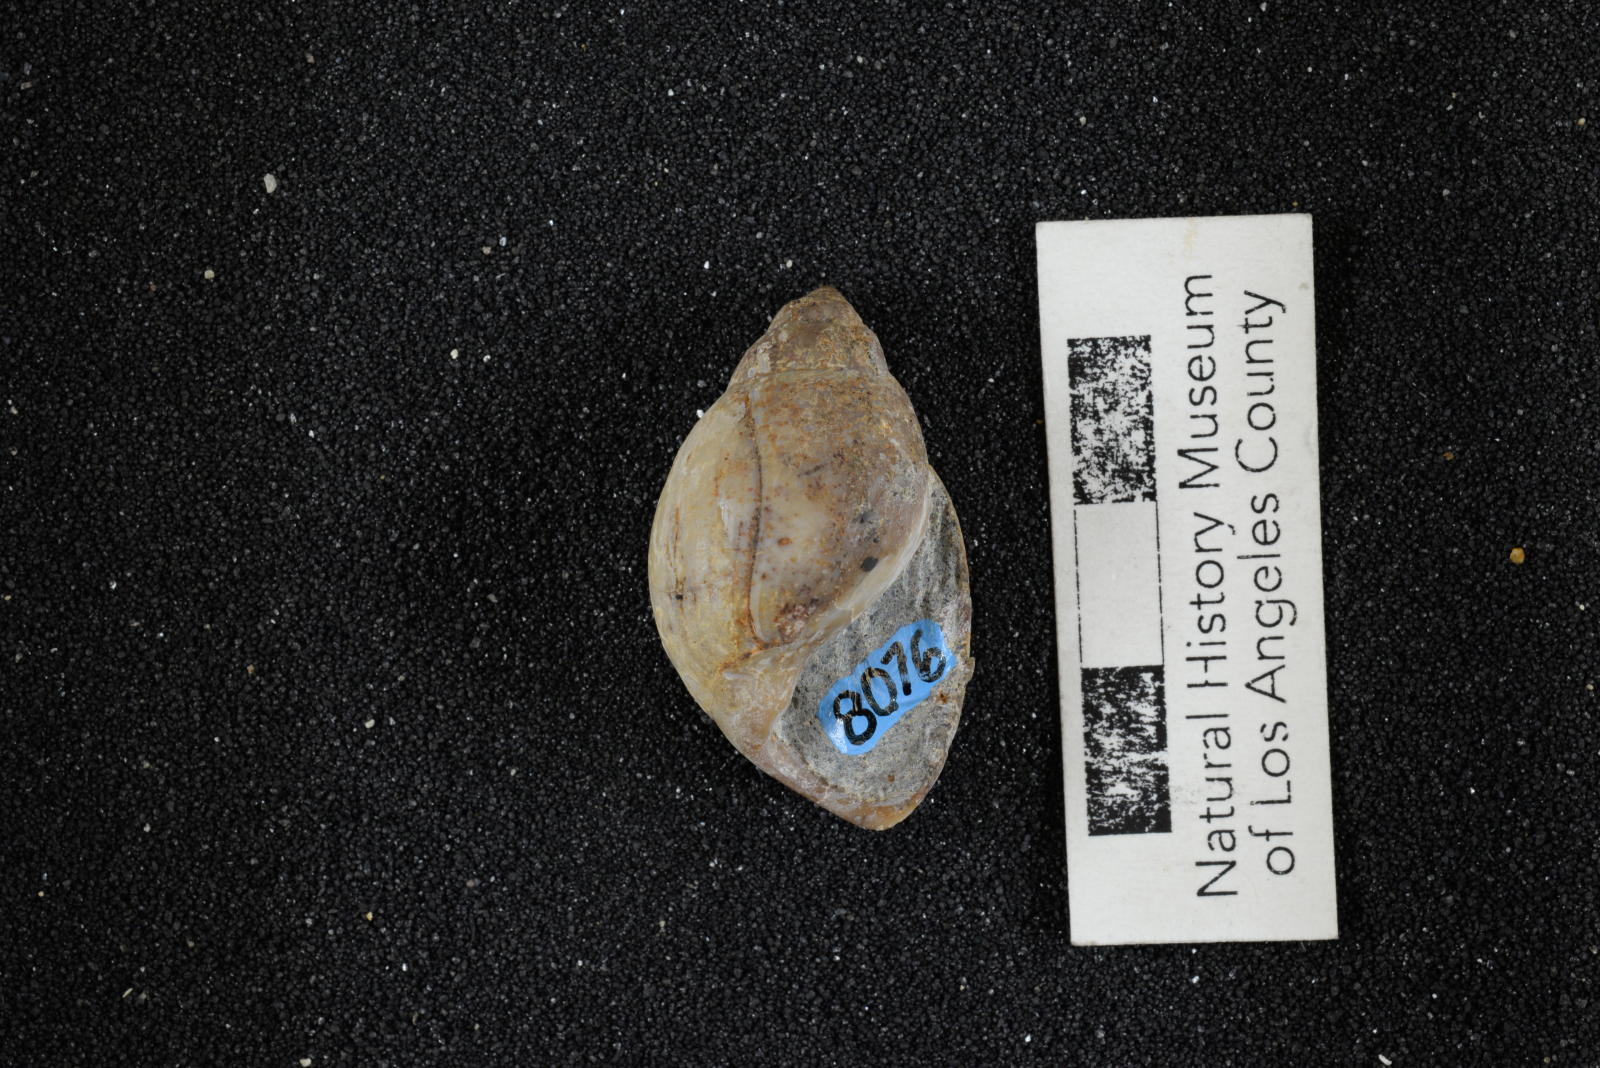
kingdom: Animalia
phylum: Mollusca
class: Gastropoda
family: Pseudomelaniidae
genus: Paosia
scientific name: Paosia Acteonina ursula
